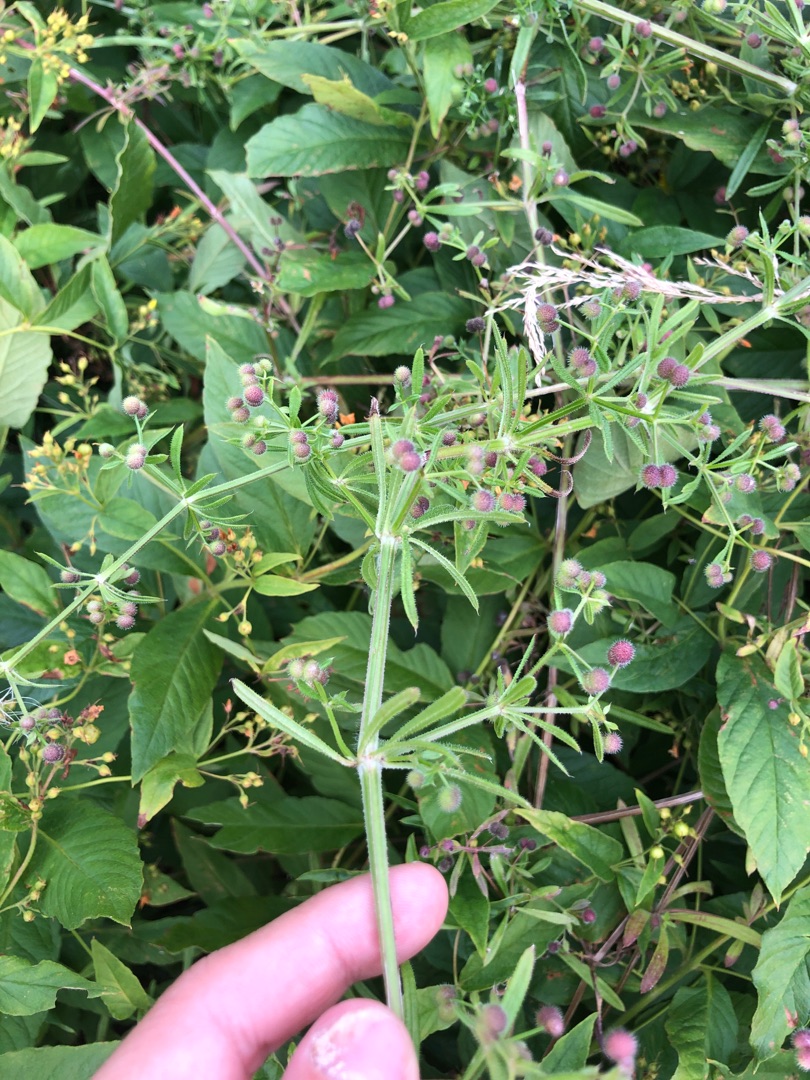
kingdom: Plantae
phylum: Tracheophyta
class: Magnoliopsida
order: Gentianales
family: Rubiaceae
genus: Galium
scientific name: Galium aparine
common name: Burre-snerre
